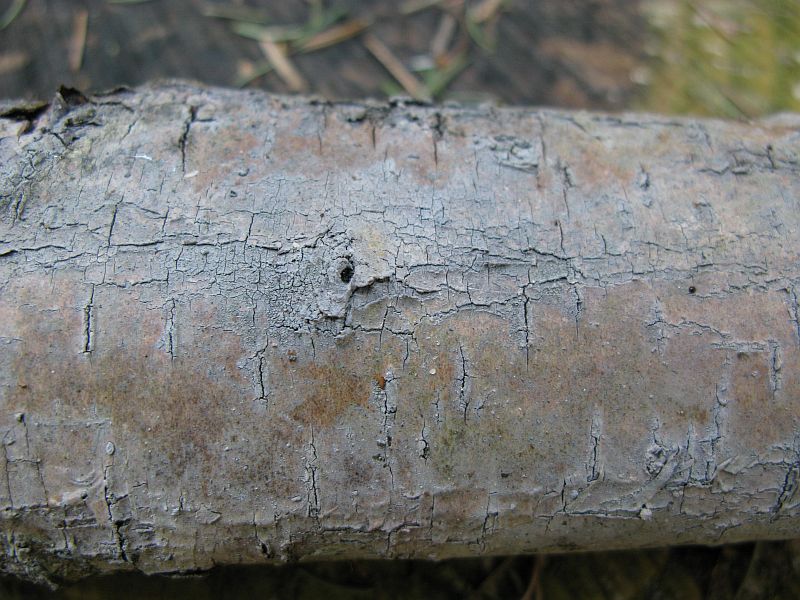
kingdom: Fungi
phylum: Basidiomycota
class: Agaricomycetes
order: Cantharellales
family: Hydnaceae
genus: Sistotrema
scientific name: Sistotrema brinkmannii
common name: bønnesporet kroneskorpe
